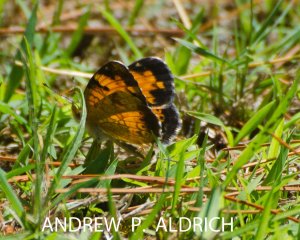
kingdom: Animalia
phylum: Arthropoda
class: Insecta
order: Lepidoptera
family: Nymphalidae
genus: Phyciodes
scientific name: Phyciodes tharos
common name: Northern Crescent
